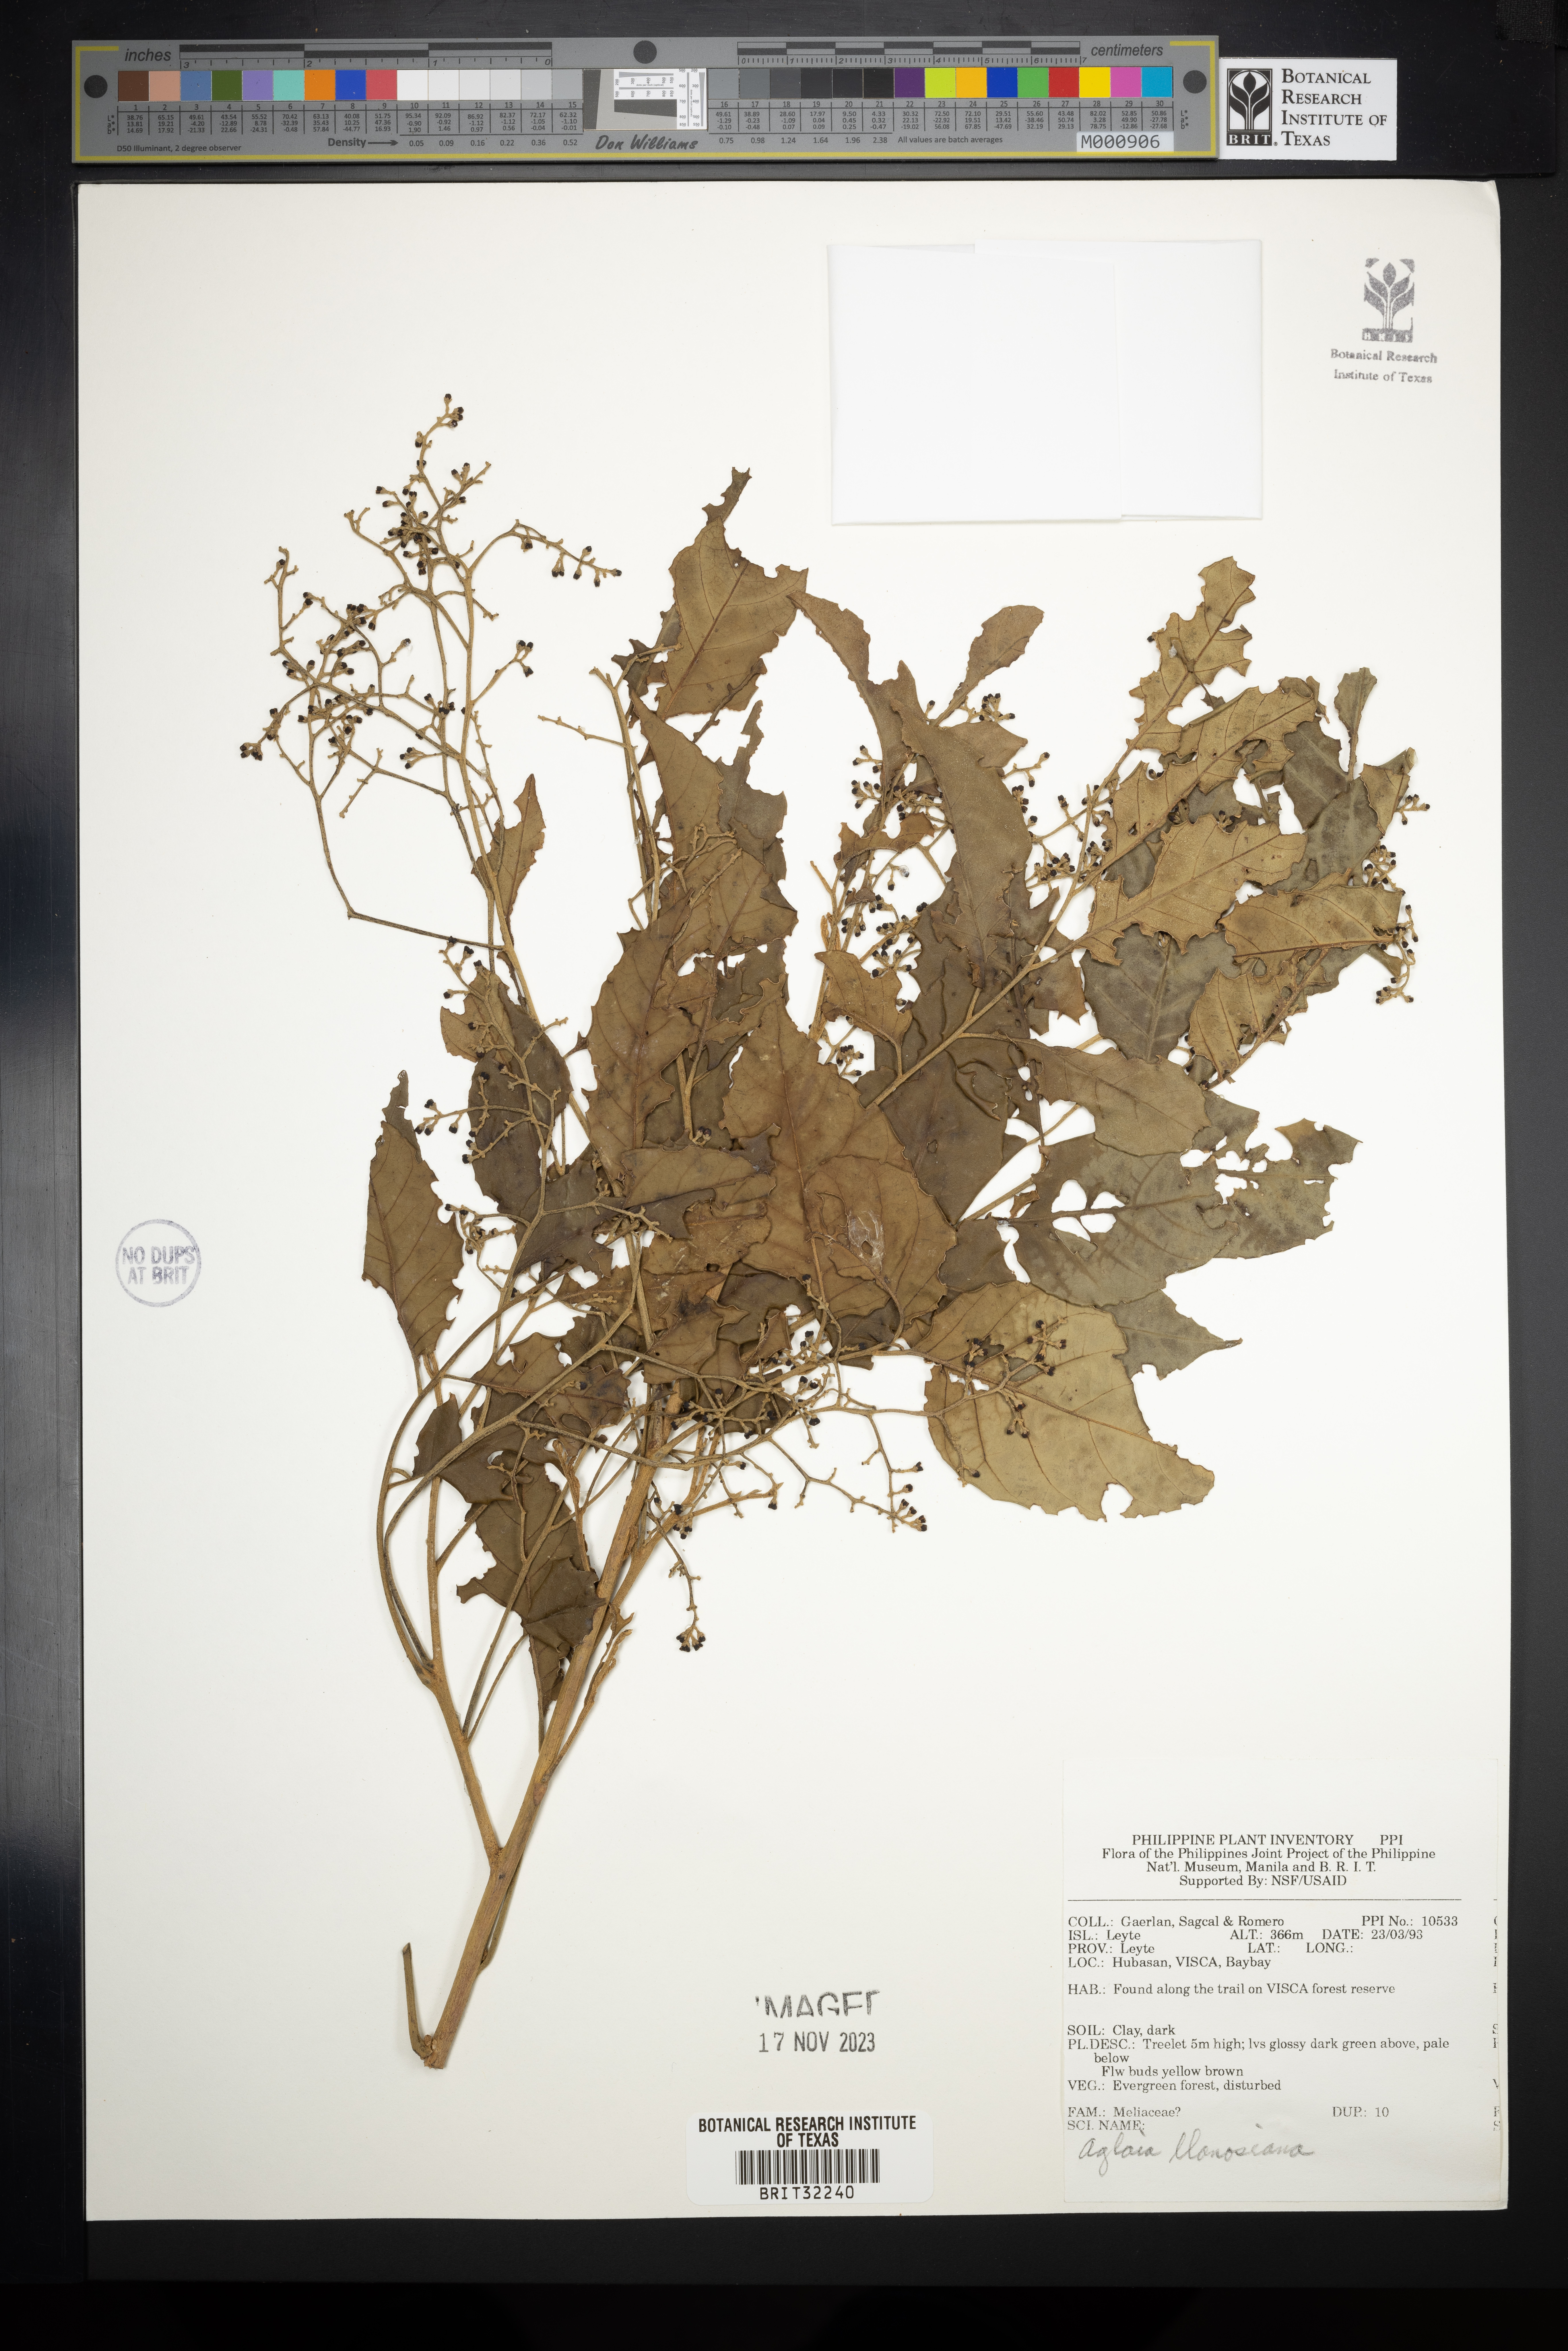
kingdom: Plantae
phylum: Tracheophyta
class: Magnoliopsida
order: Sapindales
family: Meliaceae
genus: Aglaia
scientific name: Aglaia rimosa
